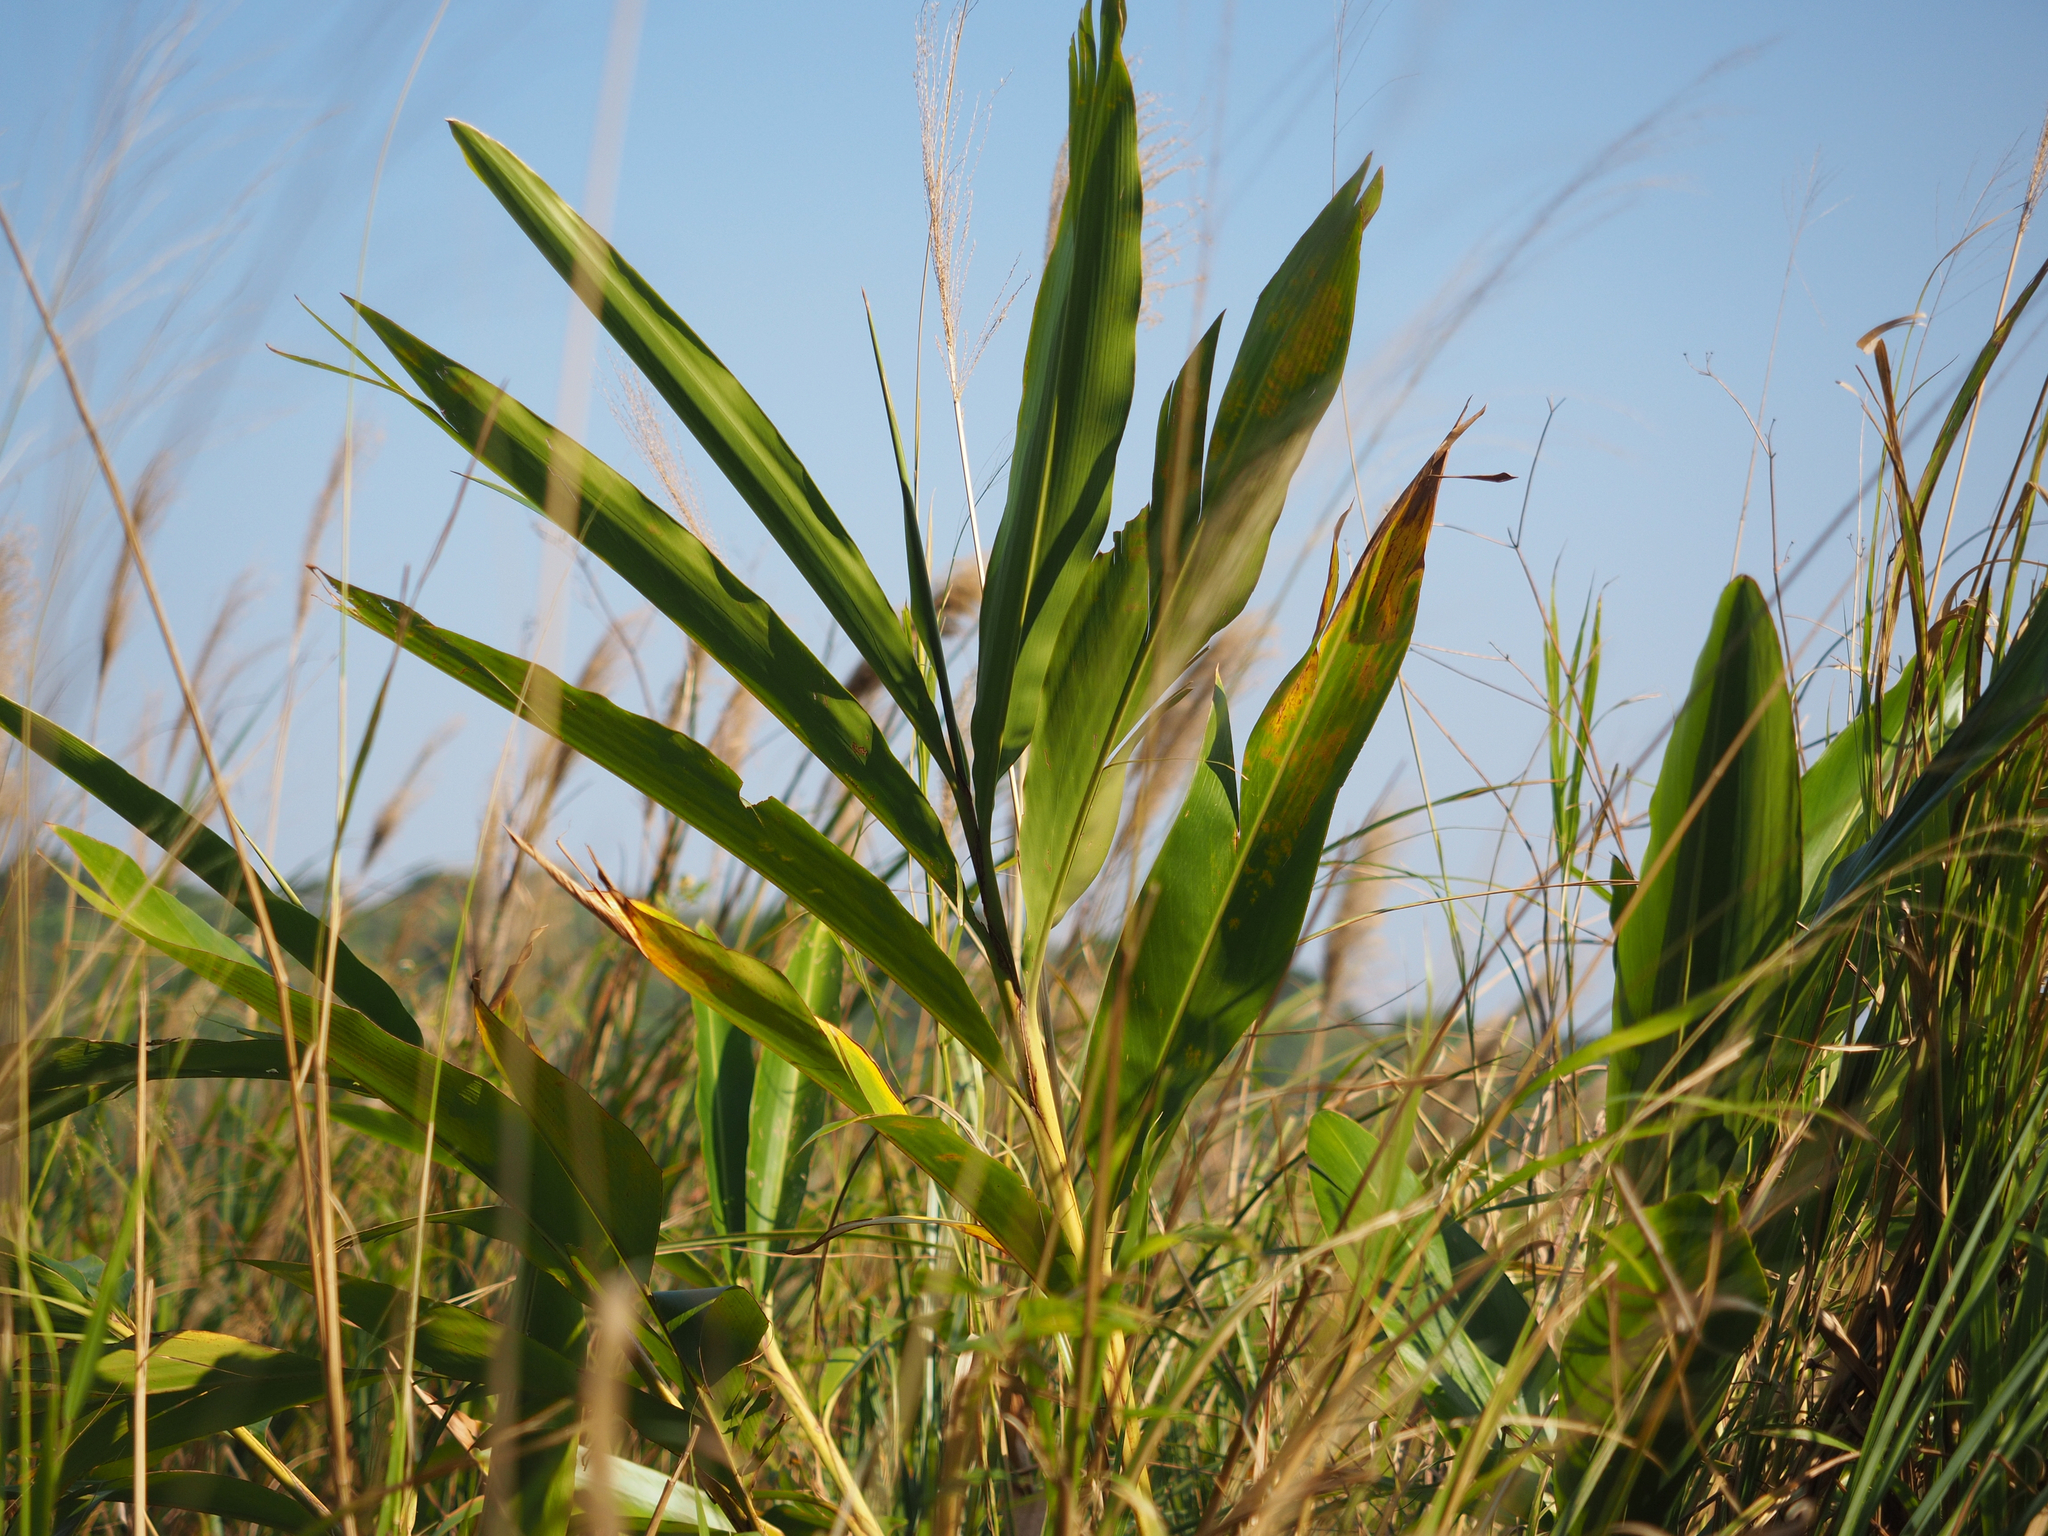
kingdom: Plantae
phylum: Tracheophyta
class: Liliopsida
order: Zingiberales
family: Zingiberaceae
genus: Alpinia
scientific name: Alpinia zerumbet
